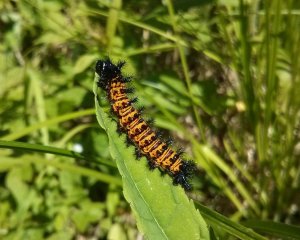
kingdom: Animalia
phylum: Arthropoda
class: Insecta
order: Lepidoptera
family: Nymphalidae
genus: Euphydryas
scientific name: Euphydryas phaeton
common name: Baltimore Checkerspot
